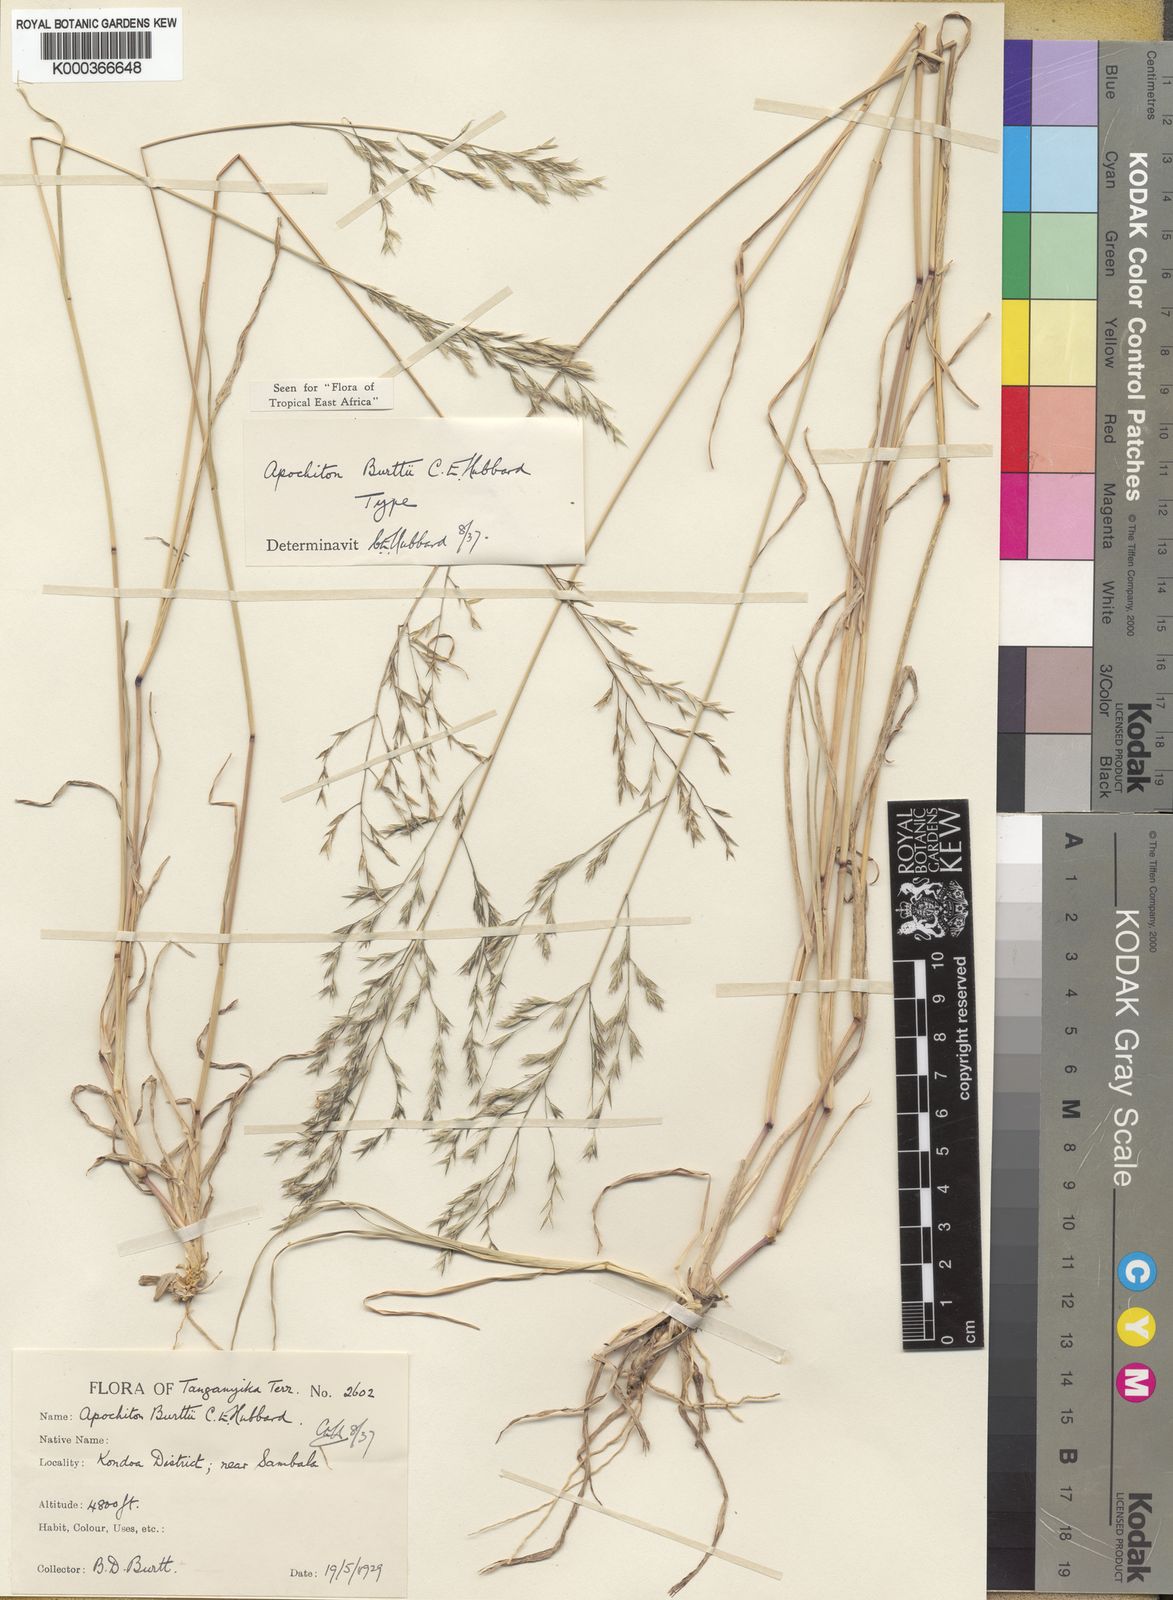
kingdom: Plantae
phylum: Tracheophyta
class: Liliopsida
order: Poales
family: Poaceae
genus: Apochiton
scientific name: Apochiton burttii
